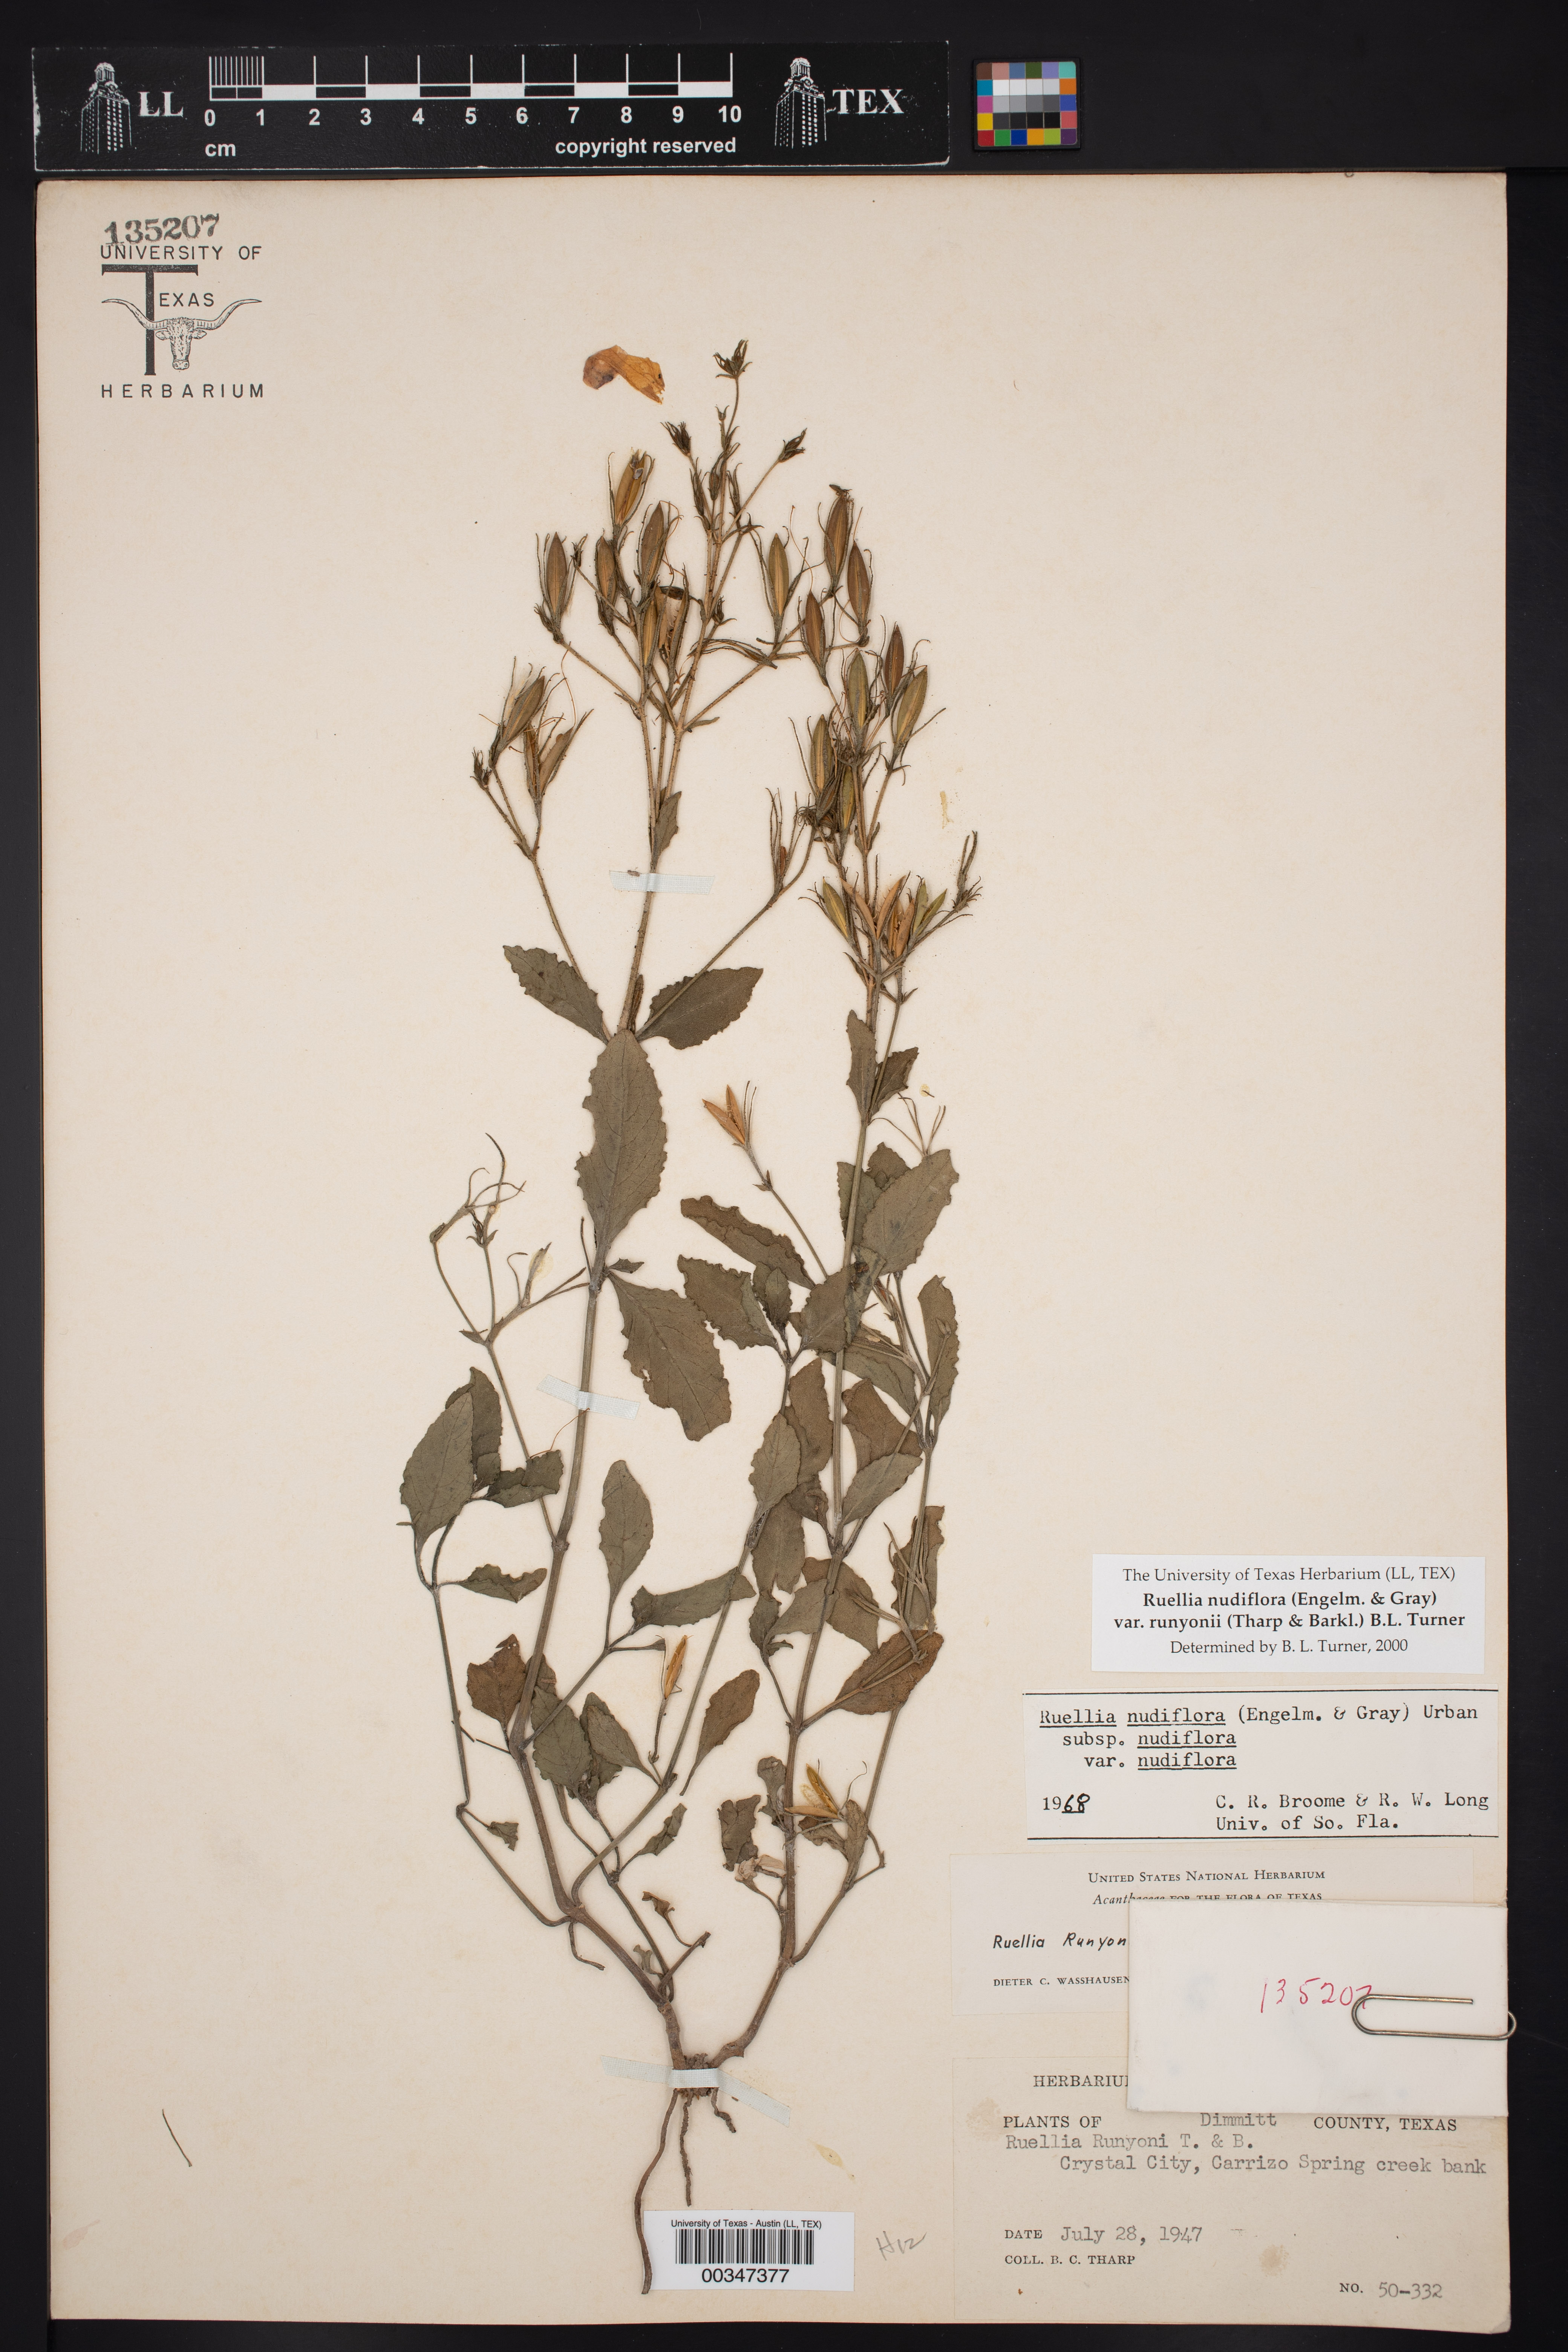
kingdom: Plantae
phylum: Tracheophyta
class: Magnoliopsida
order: Lamiales
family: Acanthaceae
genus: Ruellia
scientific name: Ruellia ciliatiflora
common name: Hairyflower wild petunia
